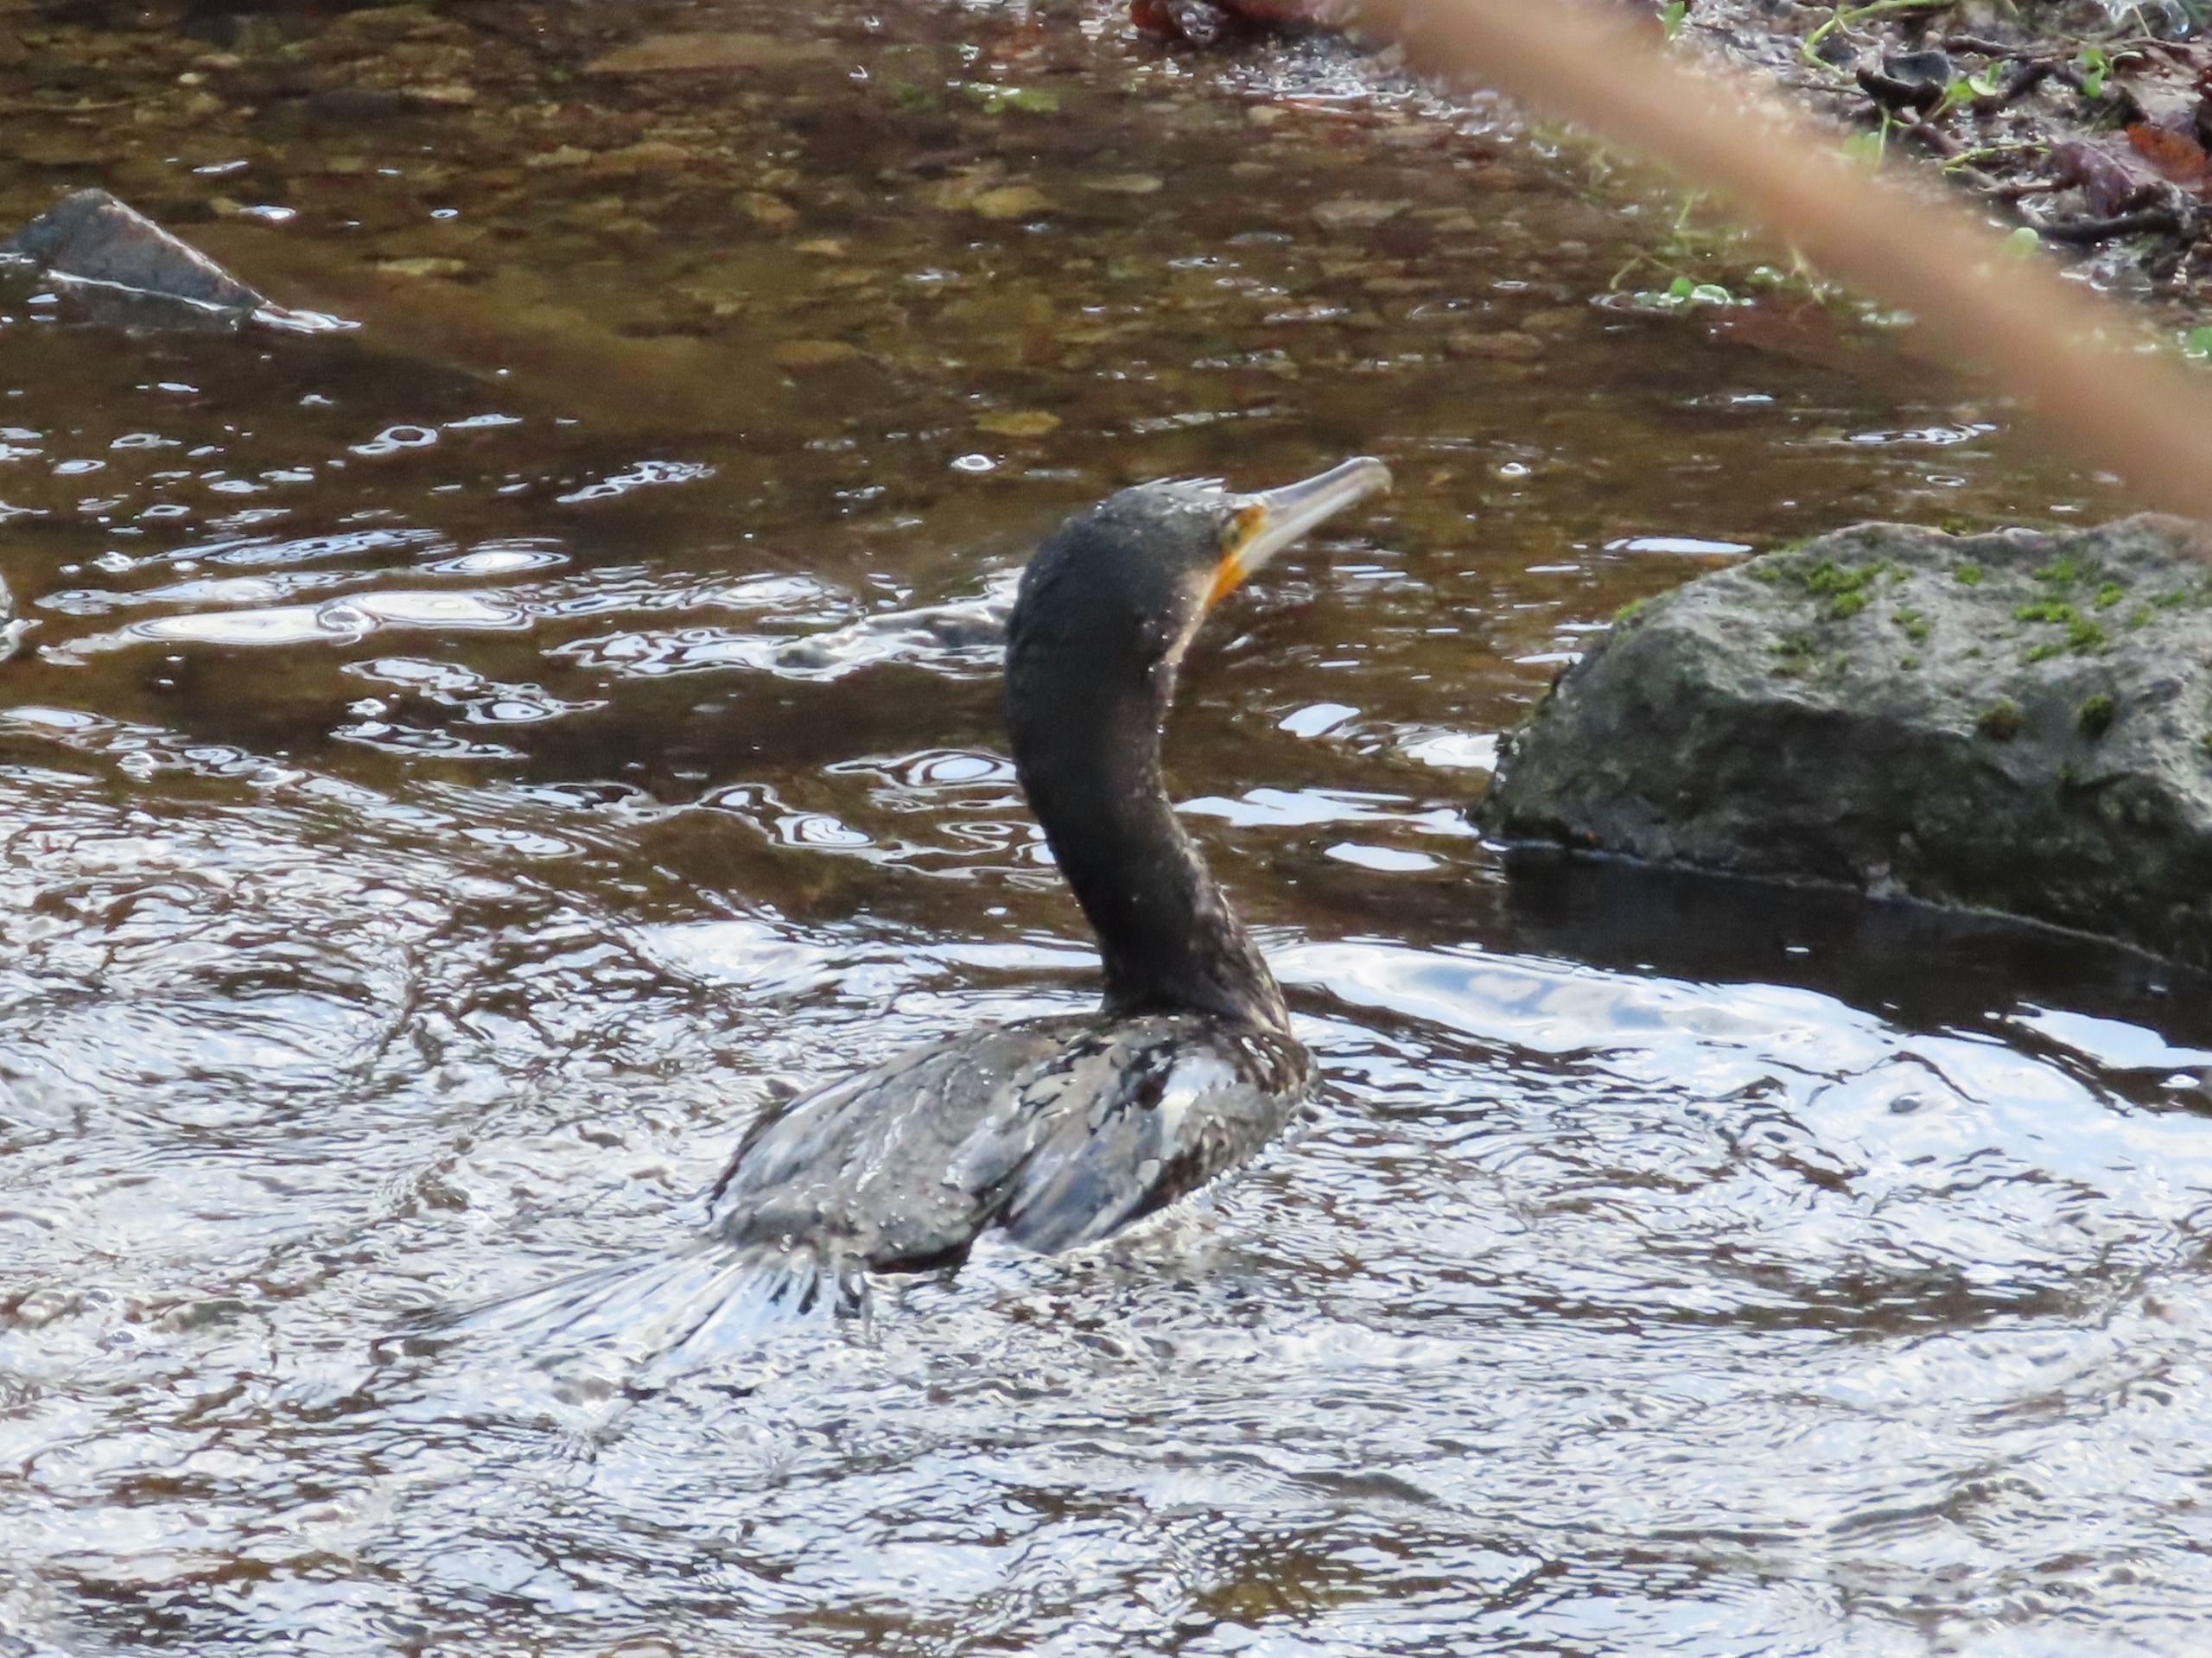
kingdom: Animalia
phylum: Chordata
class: Aves
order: Suliformes
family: Phalacrocoracidae
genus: Phalacrocorax
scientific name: Phalacrocorax carbo
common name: Skarv
